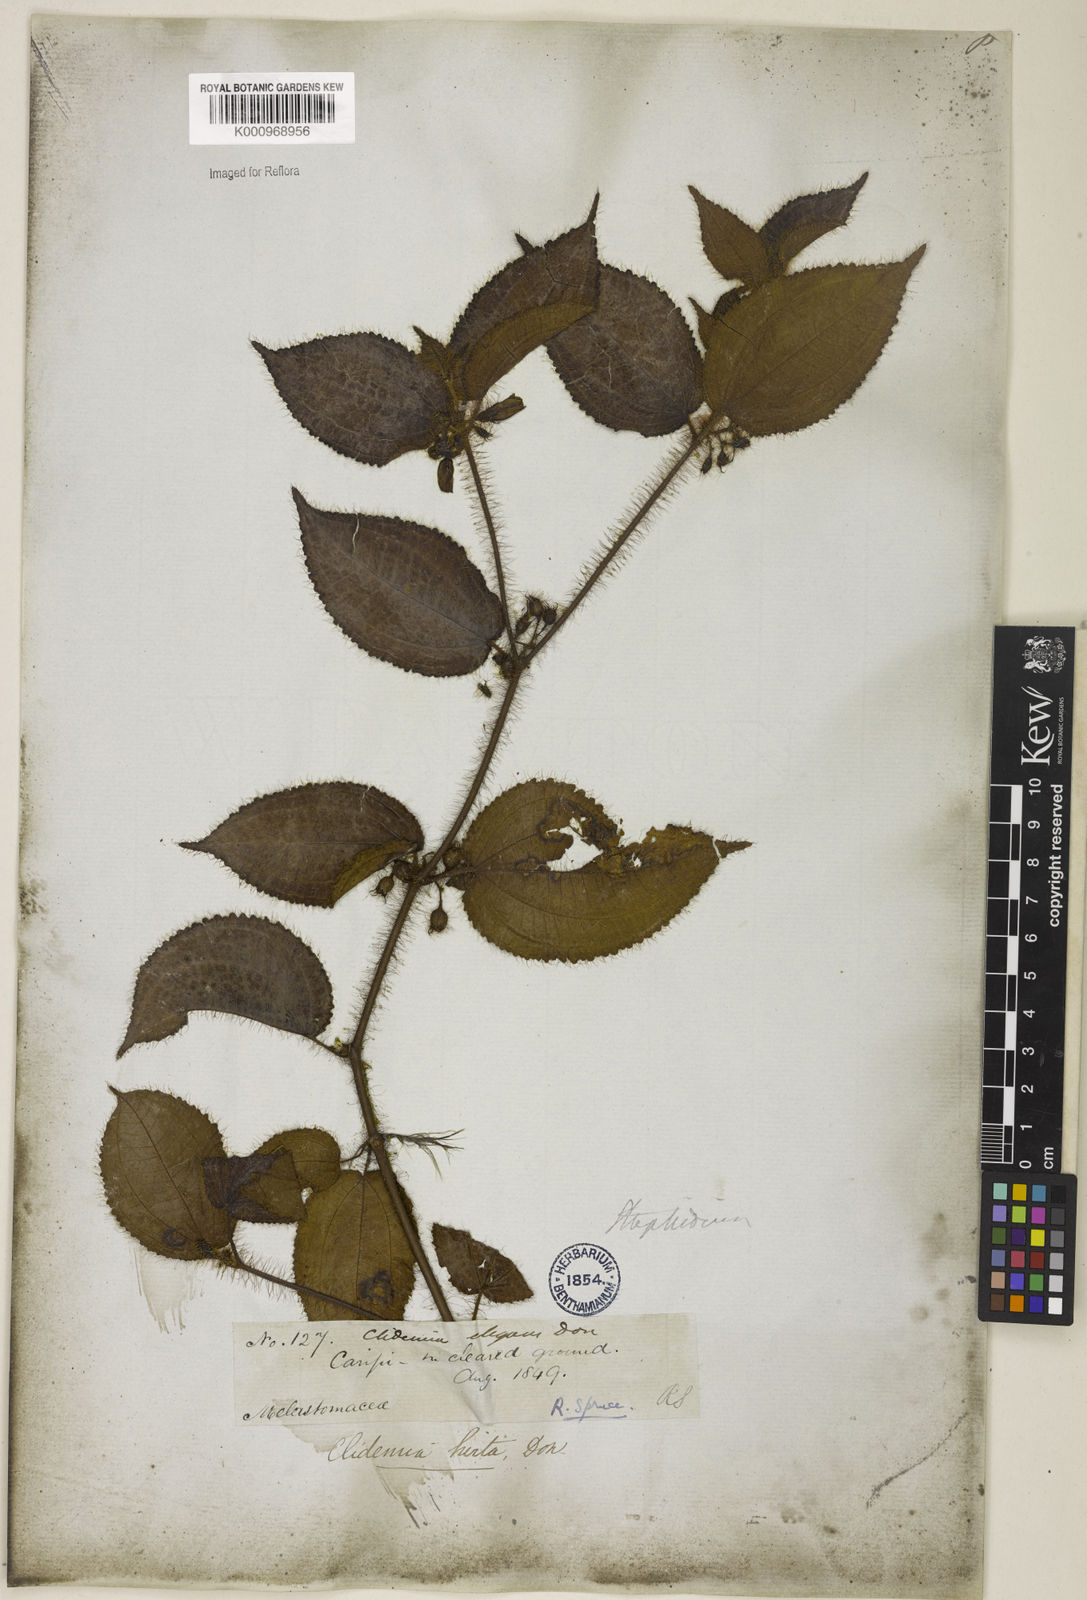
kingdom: Plantae
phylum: Tracheophyta
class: Magnoliopsida
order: Myrtales
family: Melastomataceae
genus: Miconia
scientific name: Miconia crenata
